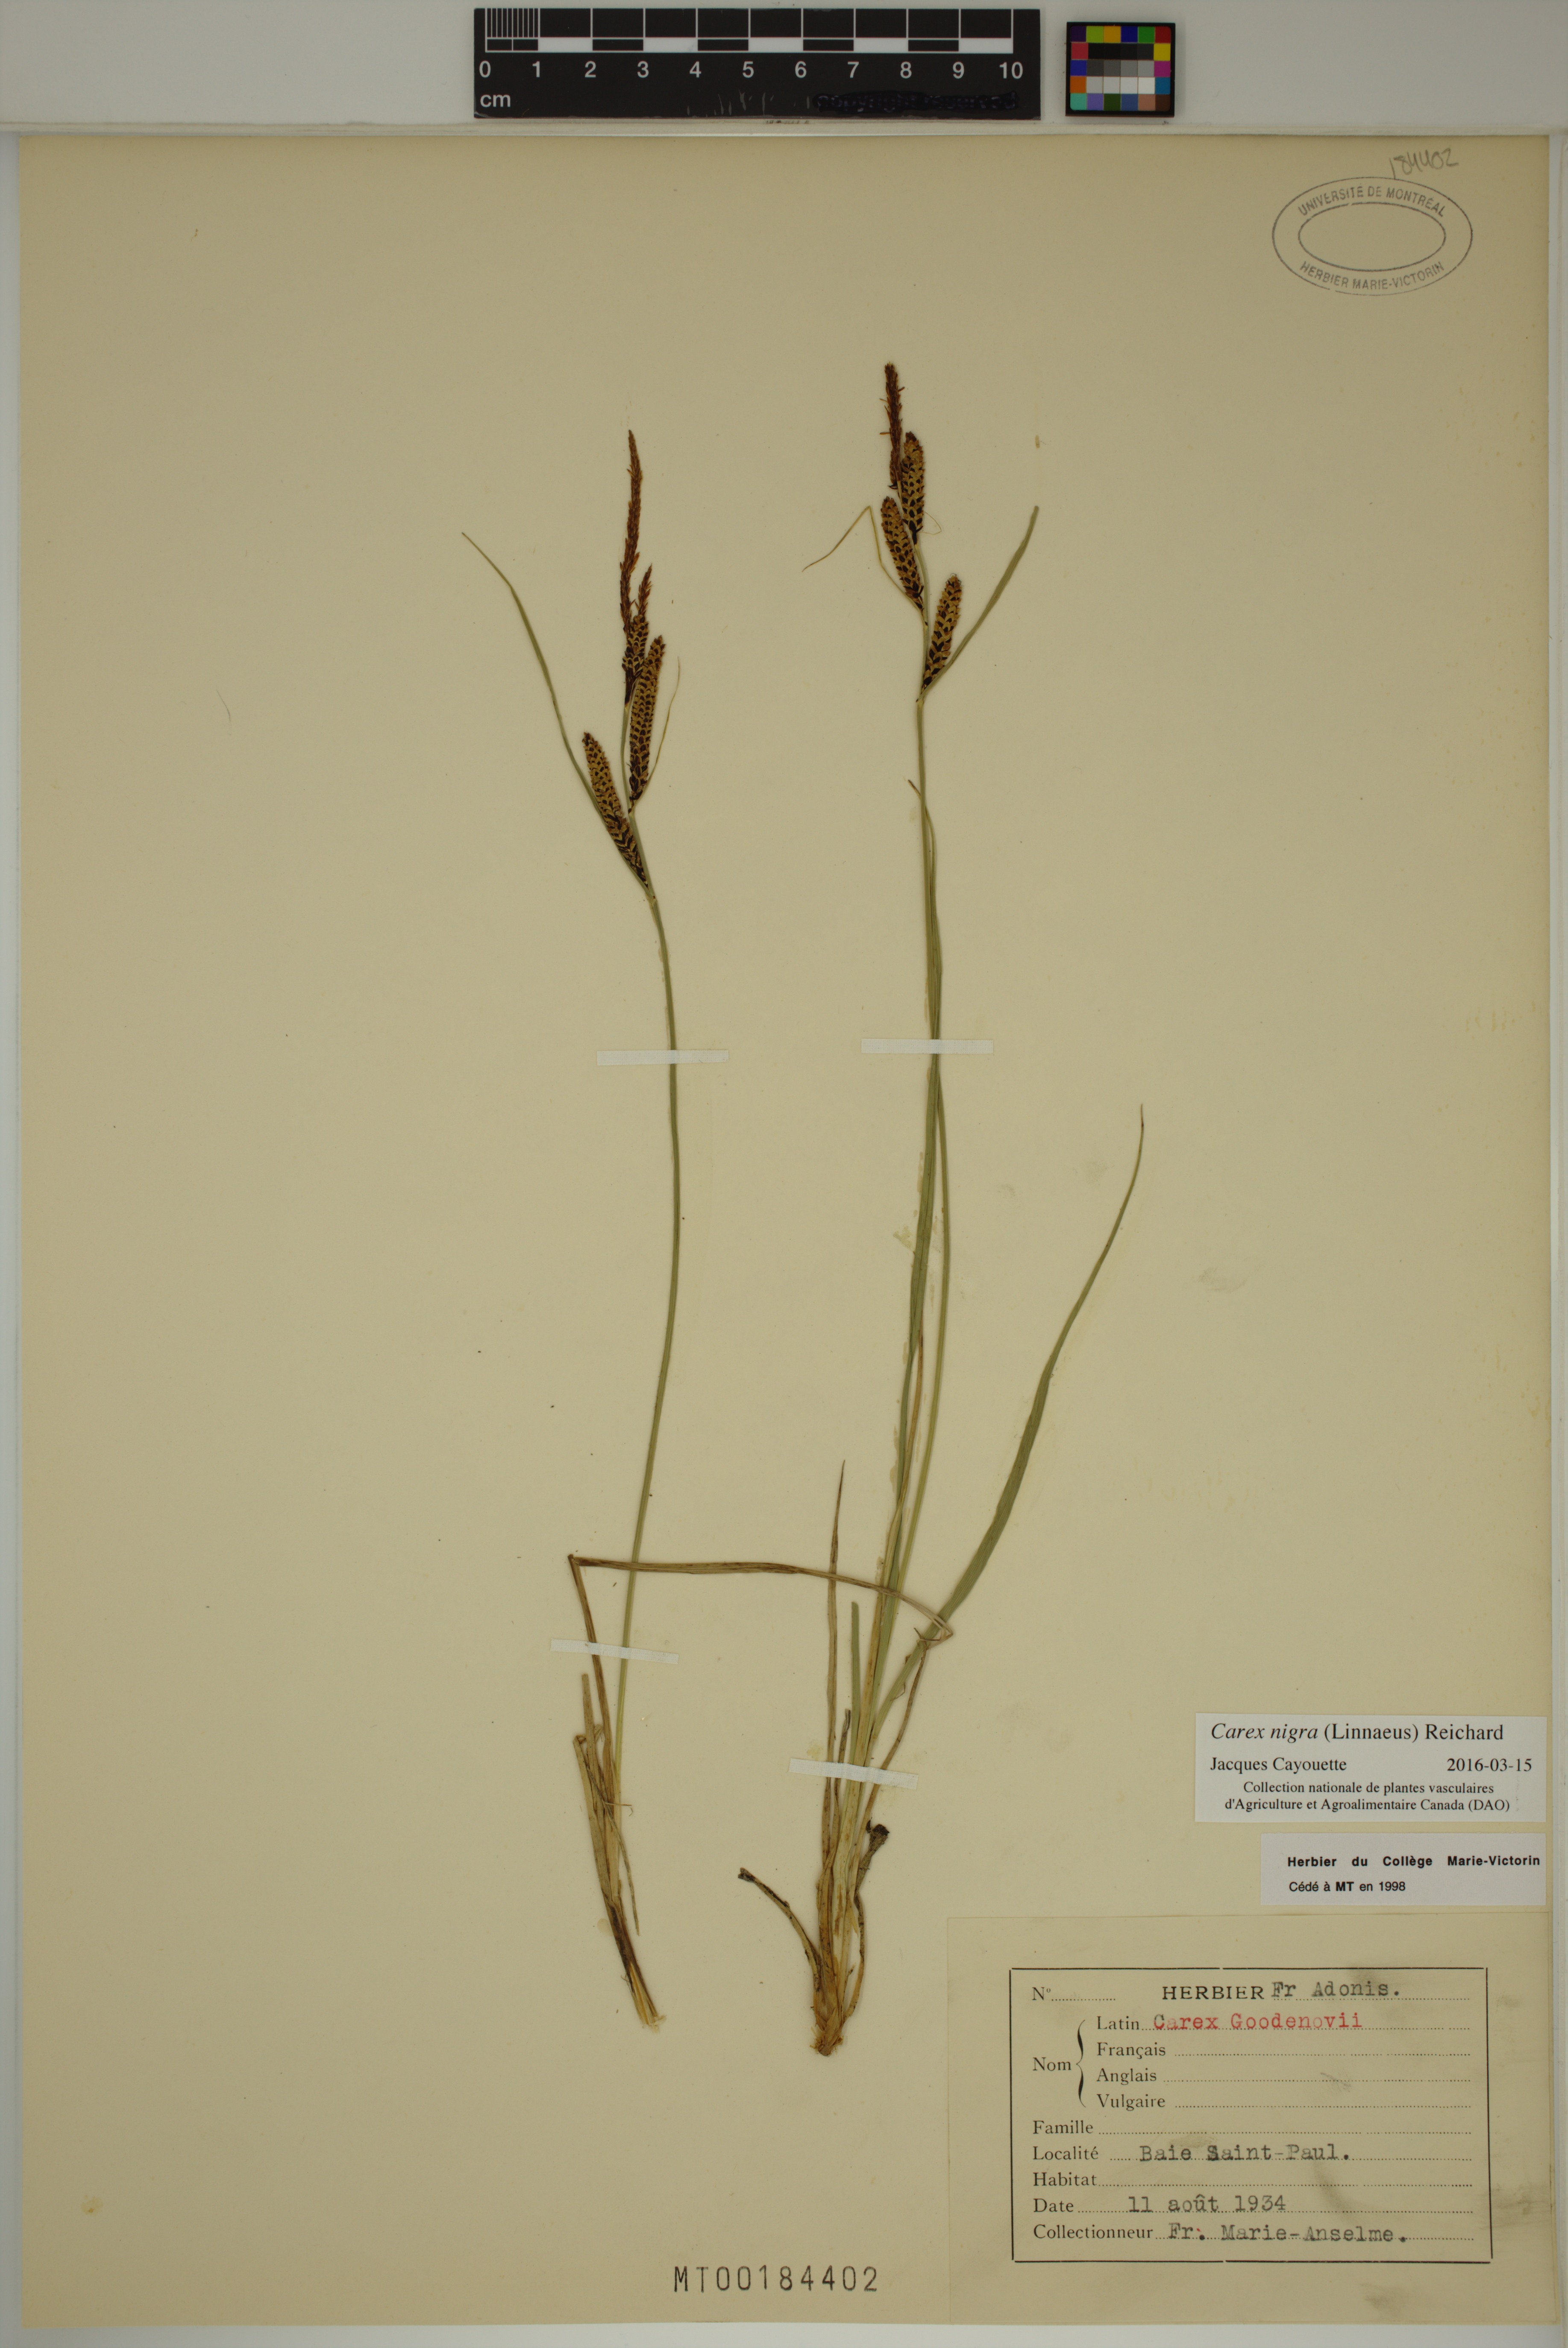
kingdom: Plantae
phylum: Tracheophyta
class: Liliopsida
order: Poales
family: Cyperaceae
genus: Carex
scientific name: Carex nigra
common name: Common sedge
